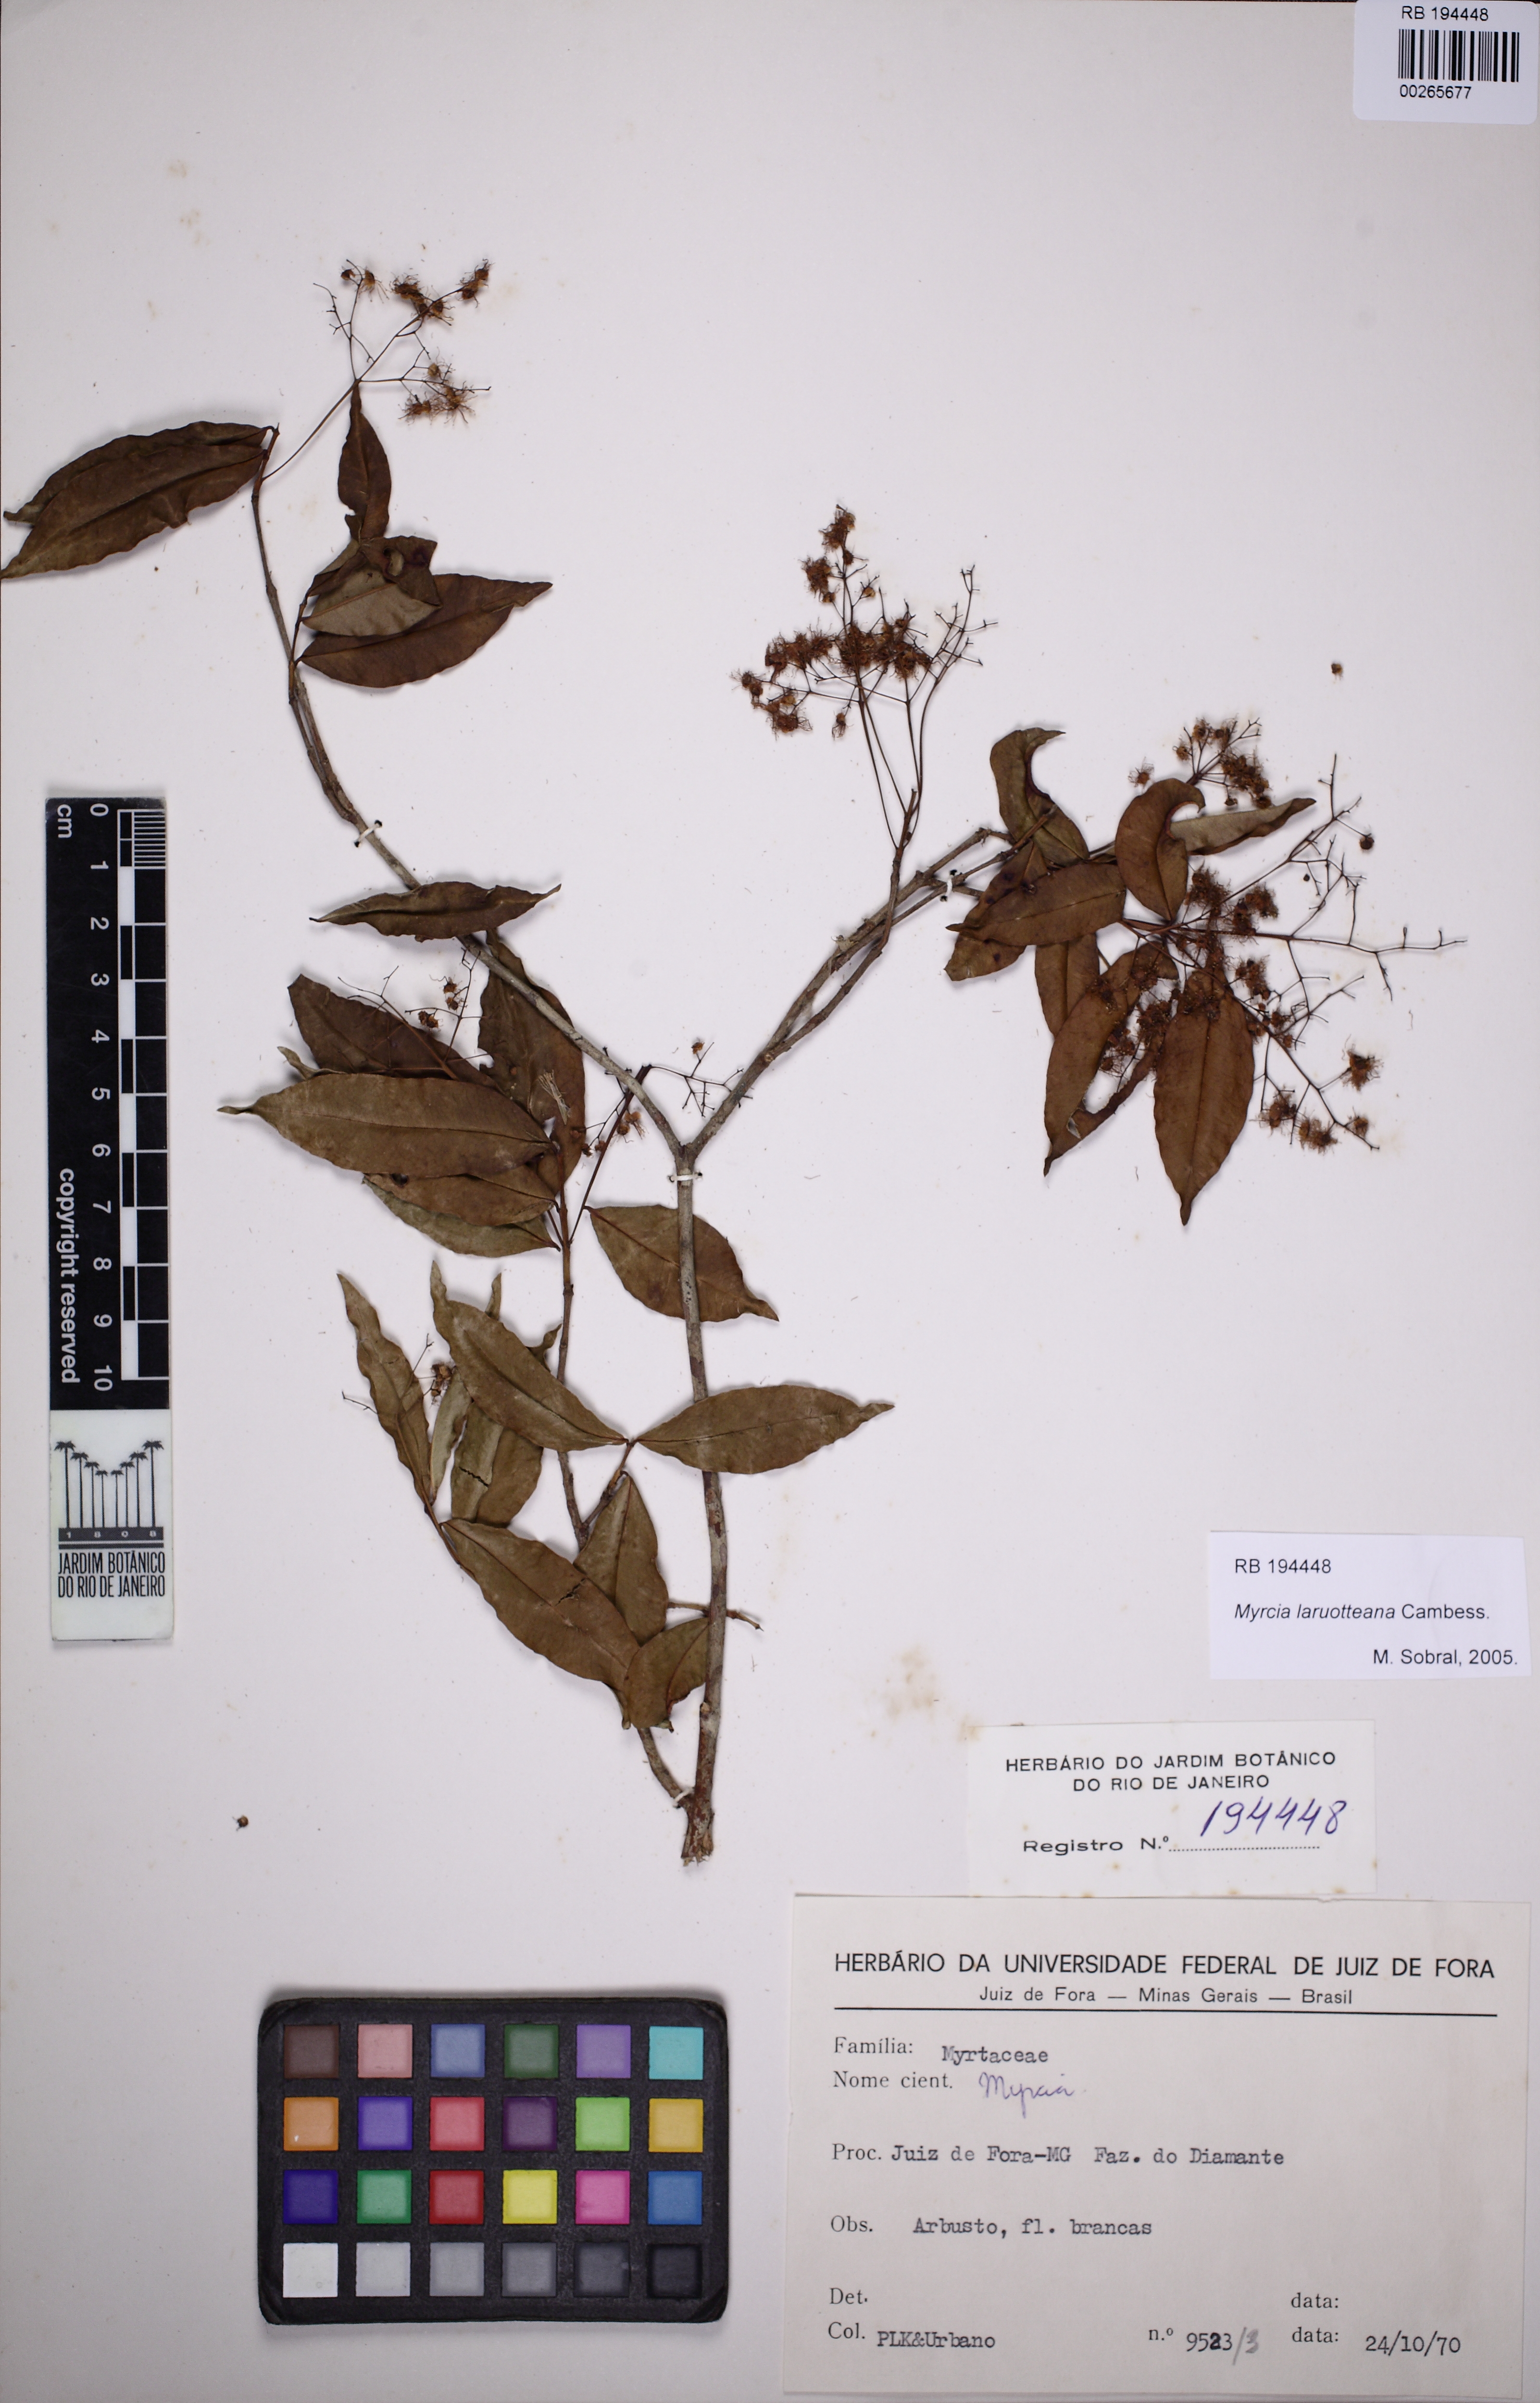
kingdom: Plantae
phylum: Tracheophyta
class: Magnoliopsida
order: Myrtales
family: Myrtaceae
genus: Myrcia
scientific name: Myrcia laruotteana
